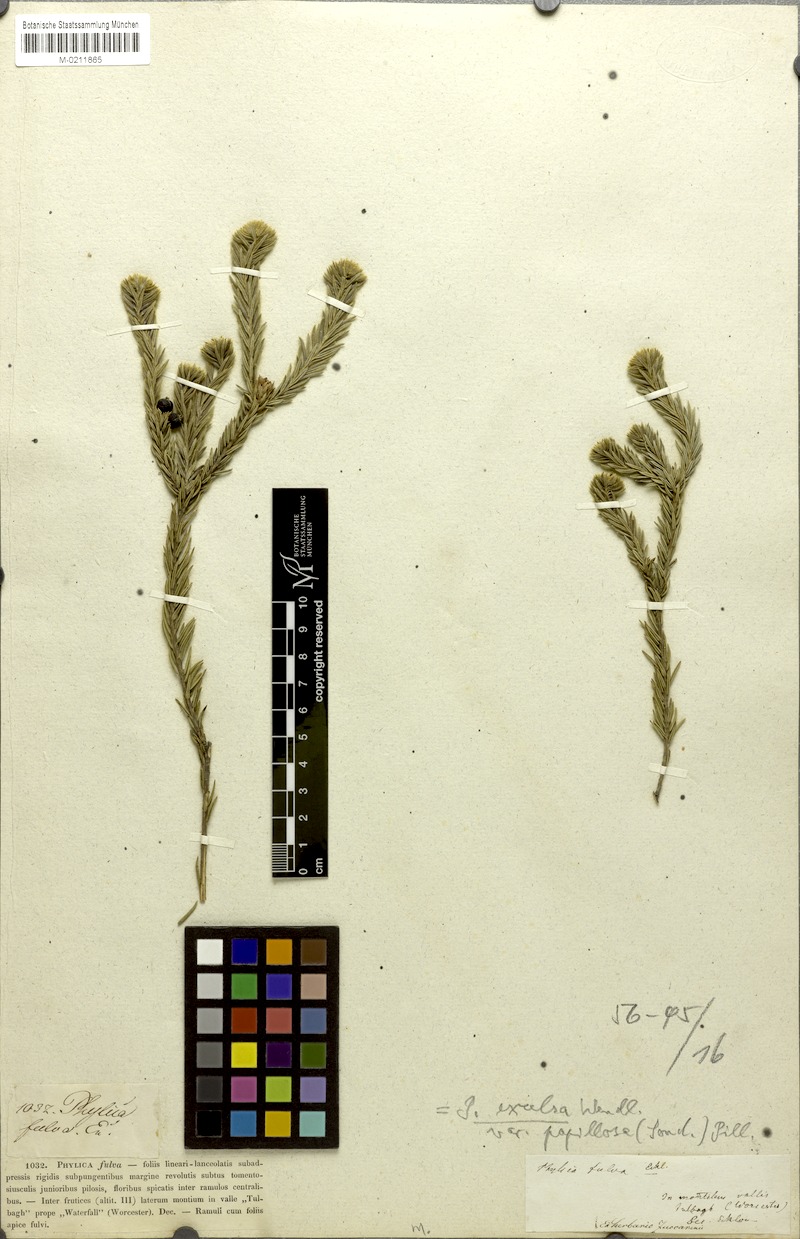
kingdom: Plantae
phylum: Tracheophyta
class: Magnoliopsida
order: Rosales
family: Rhamnaceae
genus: Phylica
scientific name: Phylica excelsa
